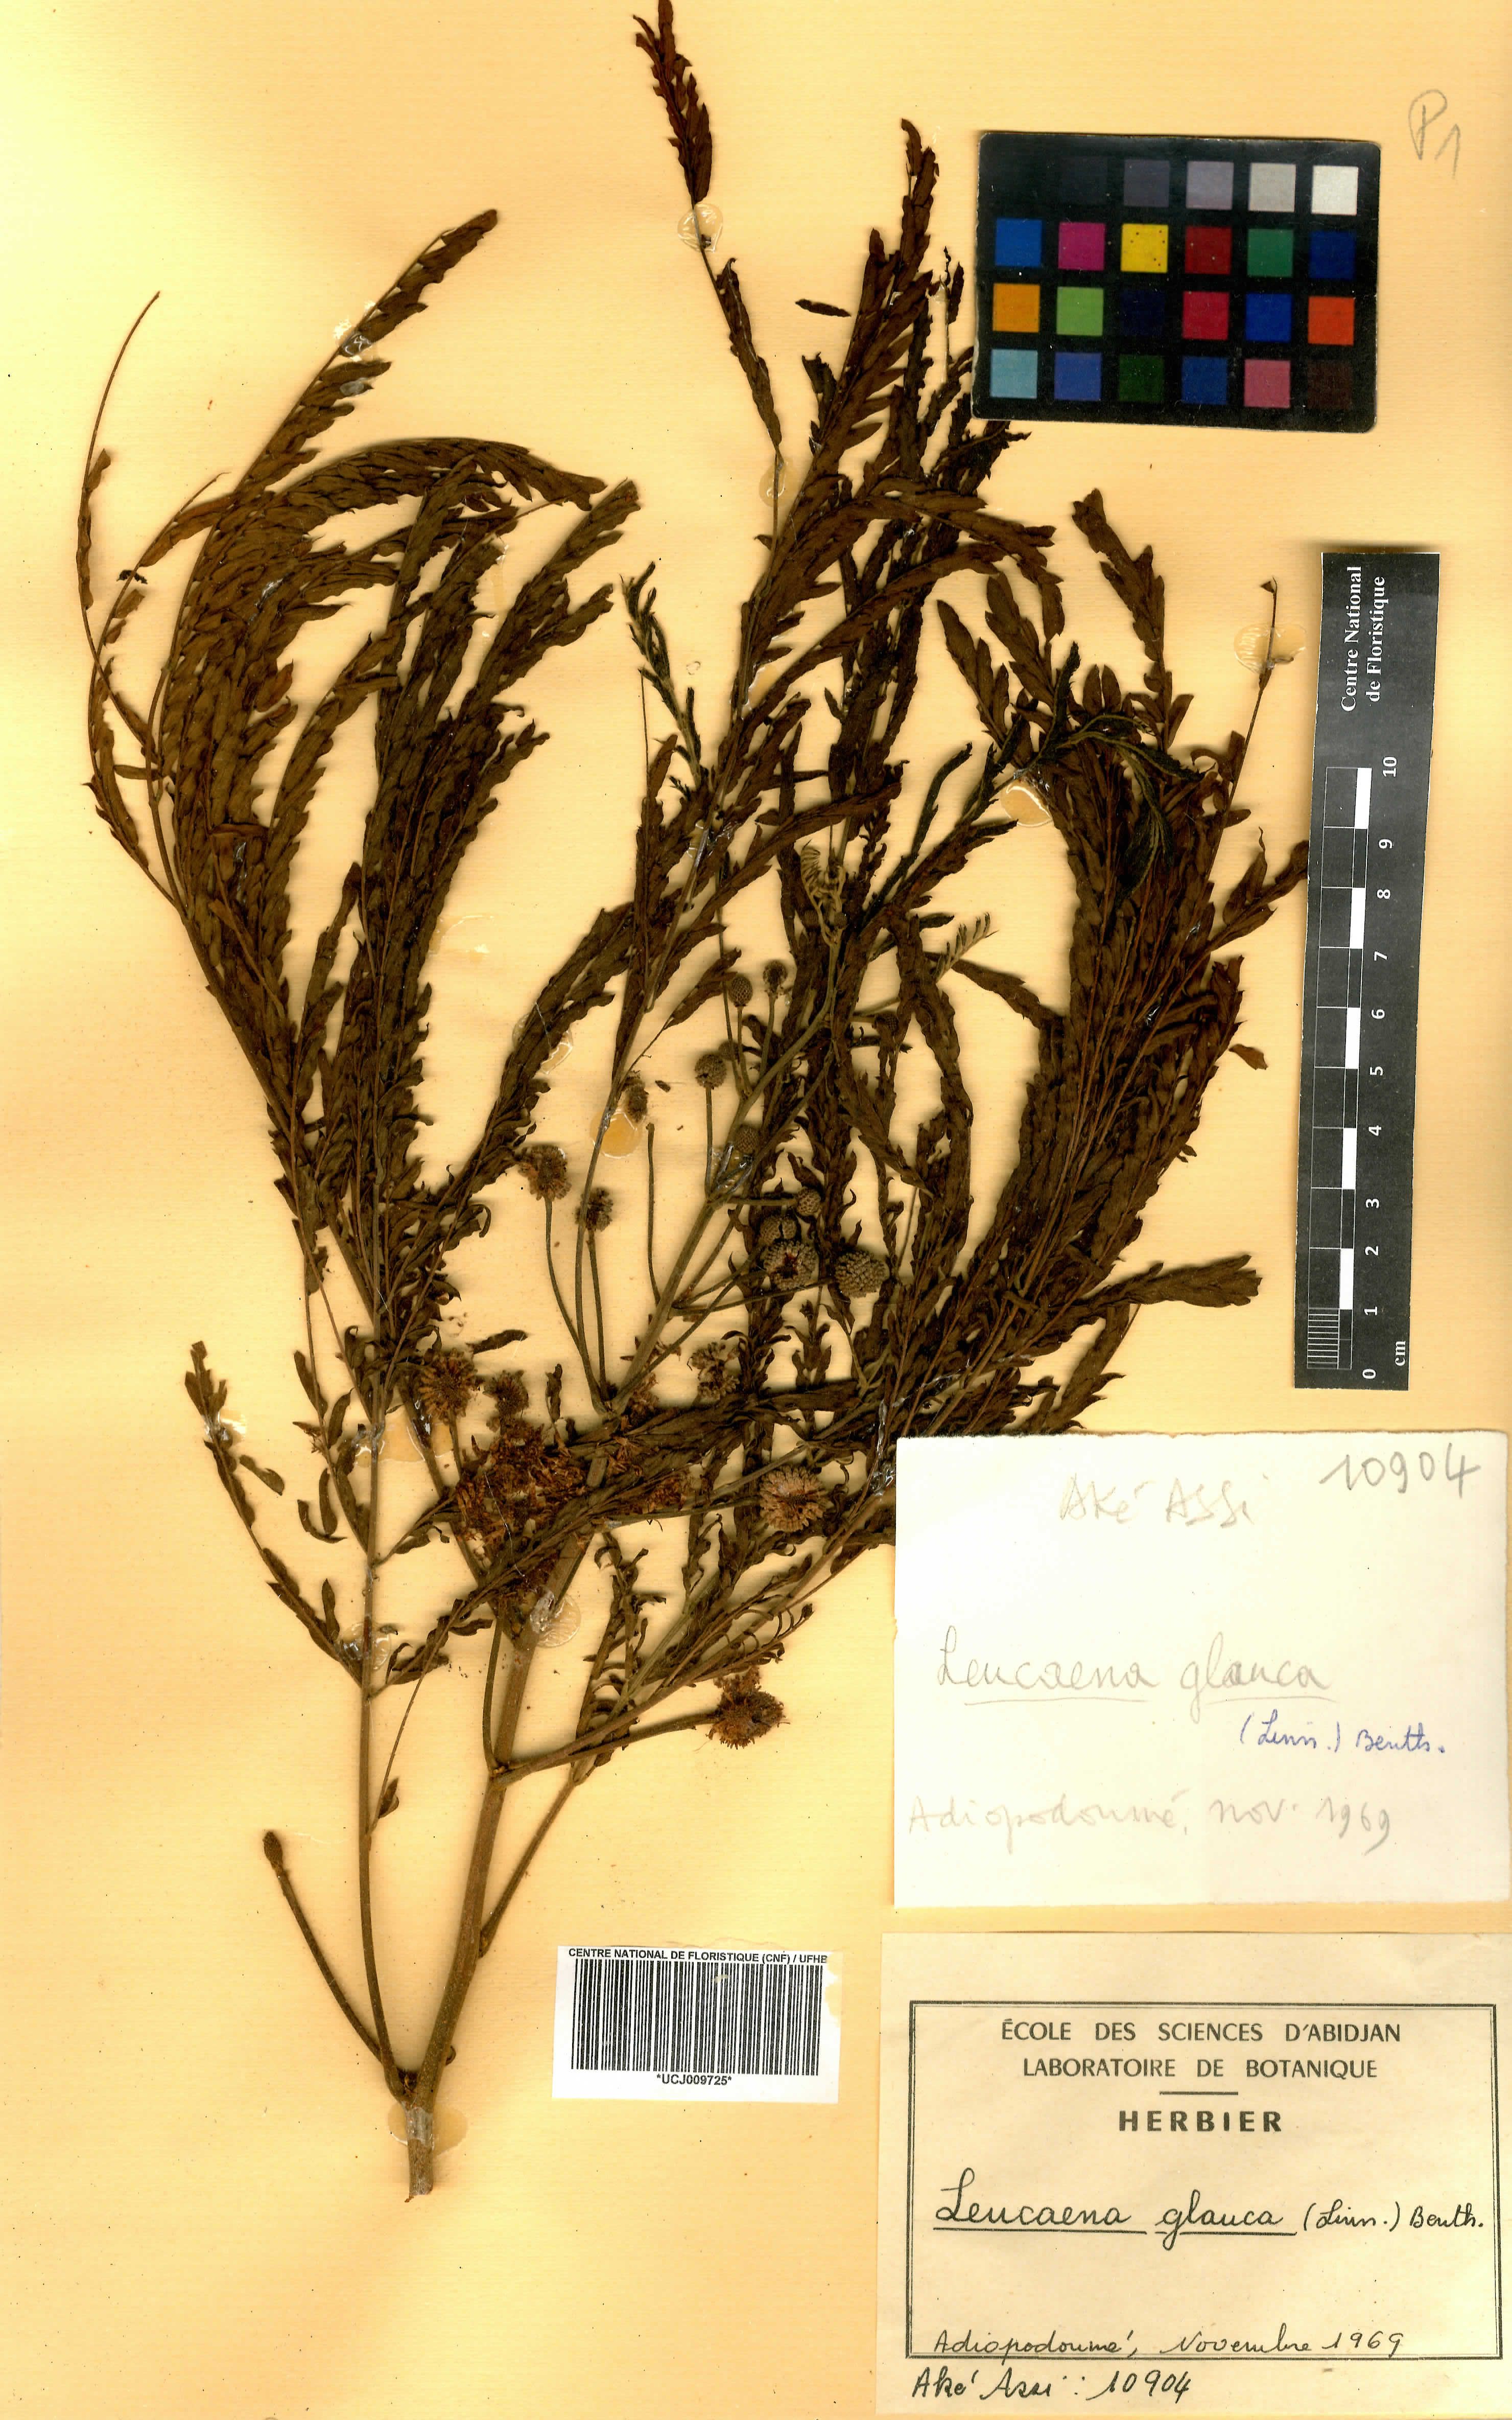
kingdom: Plantae
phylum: Tracheophyta
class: Magnoliopsida
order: Fabales
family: Fabaceae
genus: Acaciella
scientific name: Acaciella glauca
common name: Redwood
